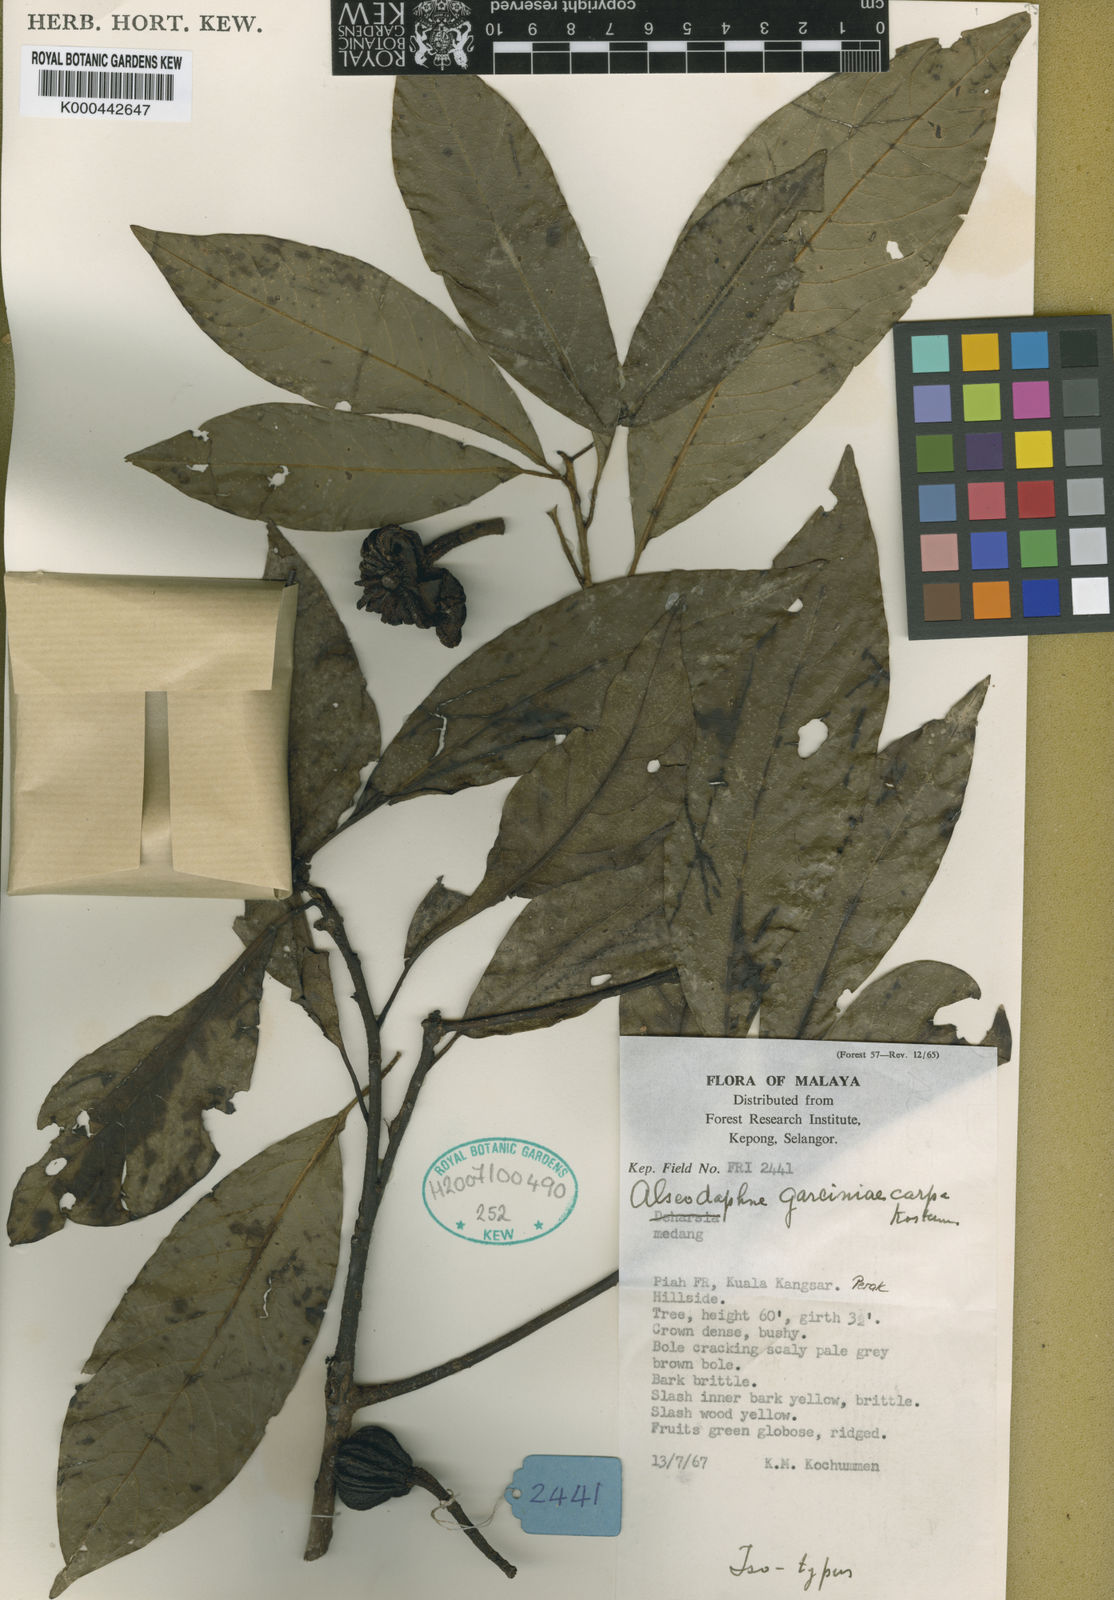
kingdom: Plantae
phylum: Tracheophyta
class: Magnoliopsida
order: Laurales
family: Lauraceae
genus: Alseodaphne
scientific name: Alseodaphne garciniicarpa
